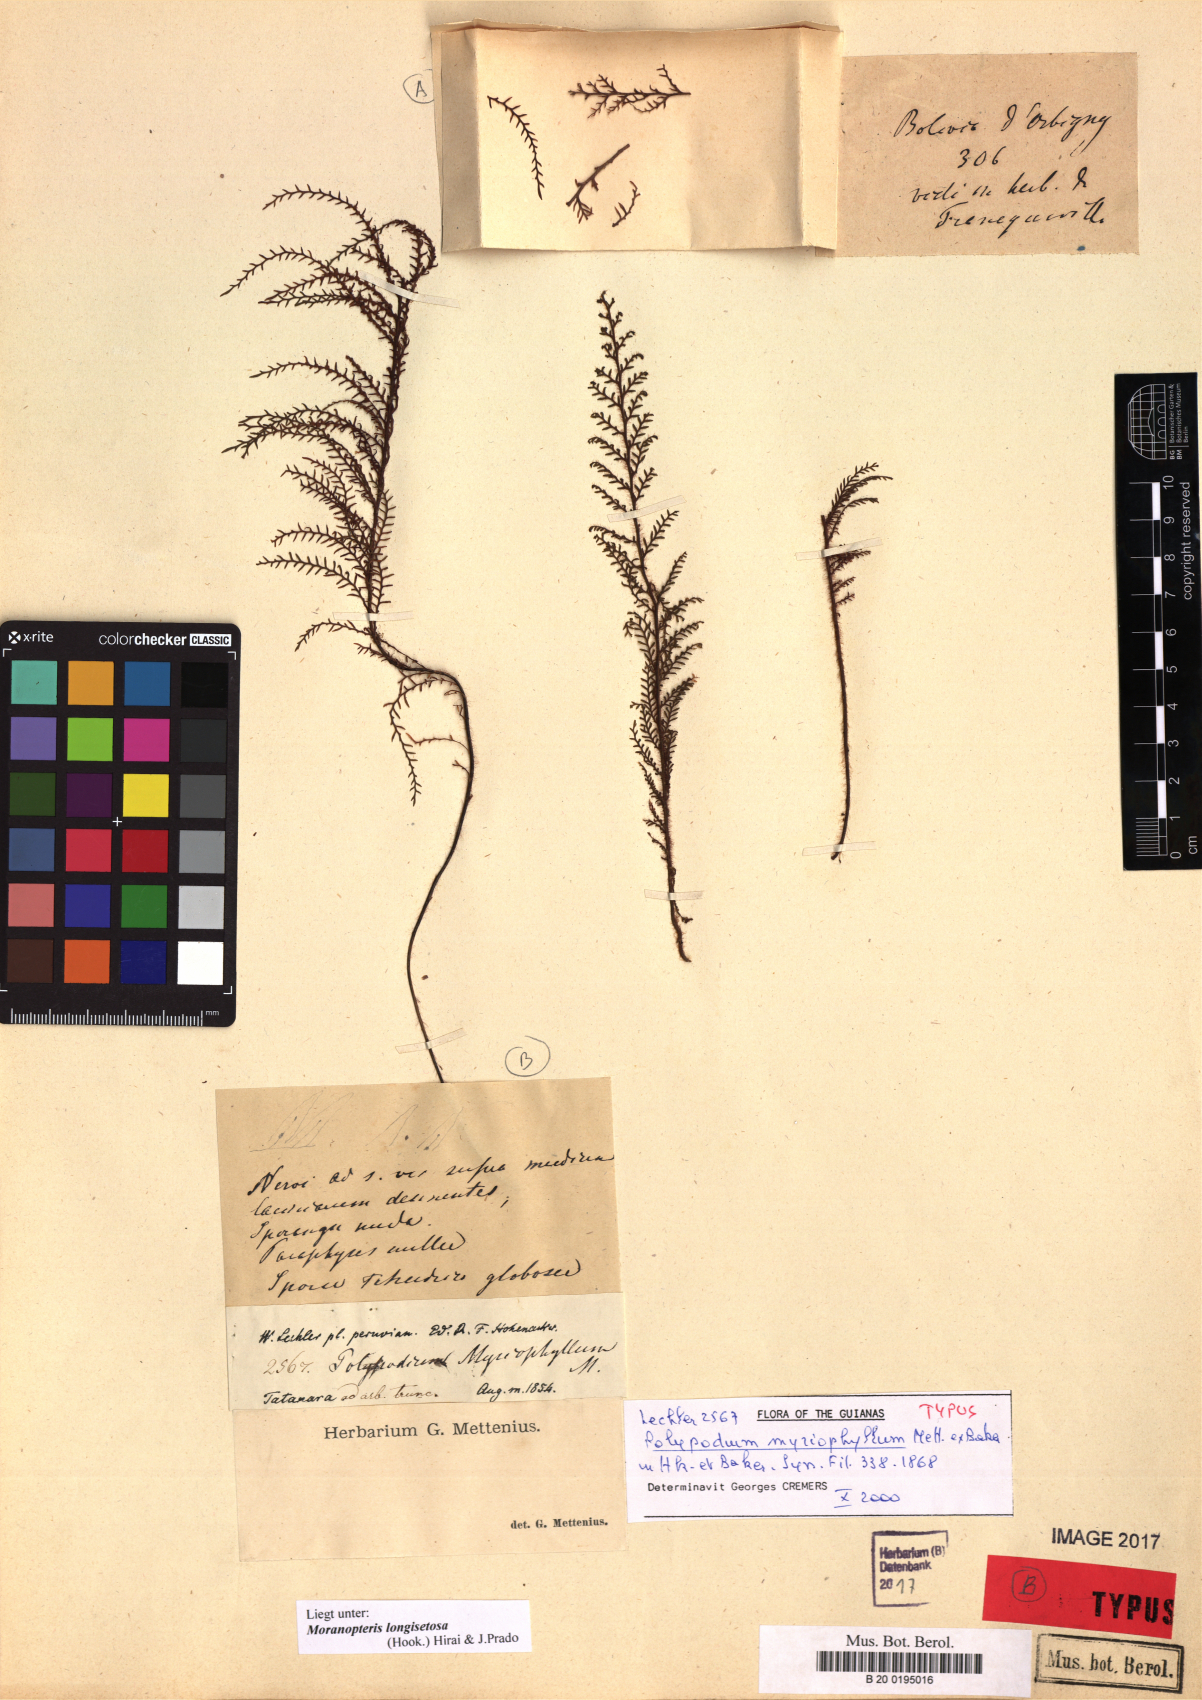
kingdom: Plantae
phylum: Tracheophyta
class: Polypodiopsida
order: Polypodiales
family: Polypodiaceae
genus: Moranopteris
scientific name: Moranopteris longisetosa
